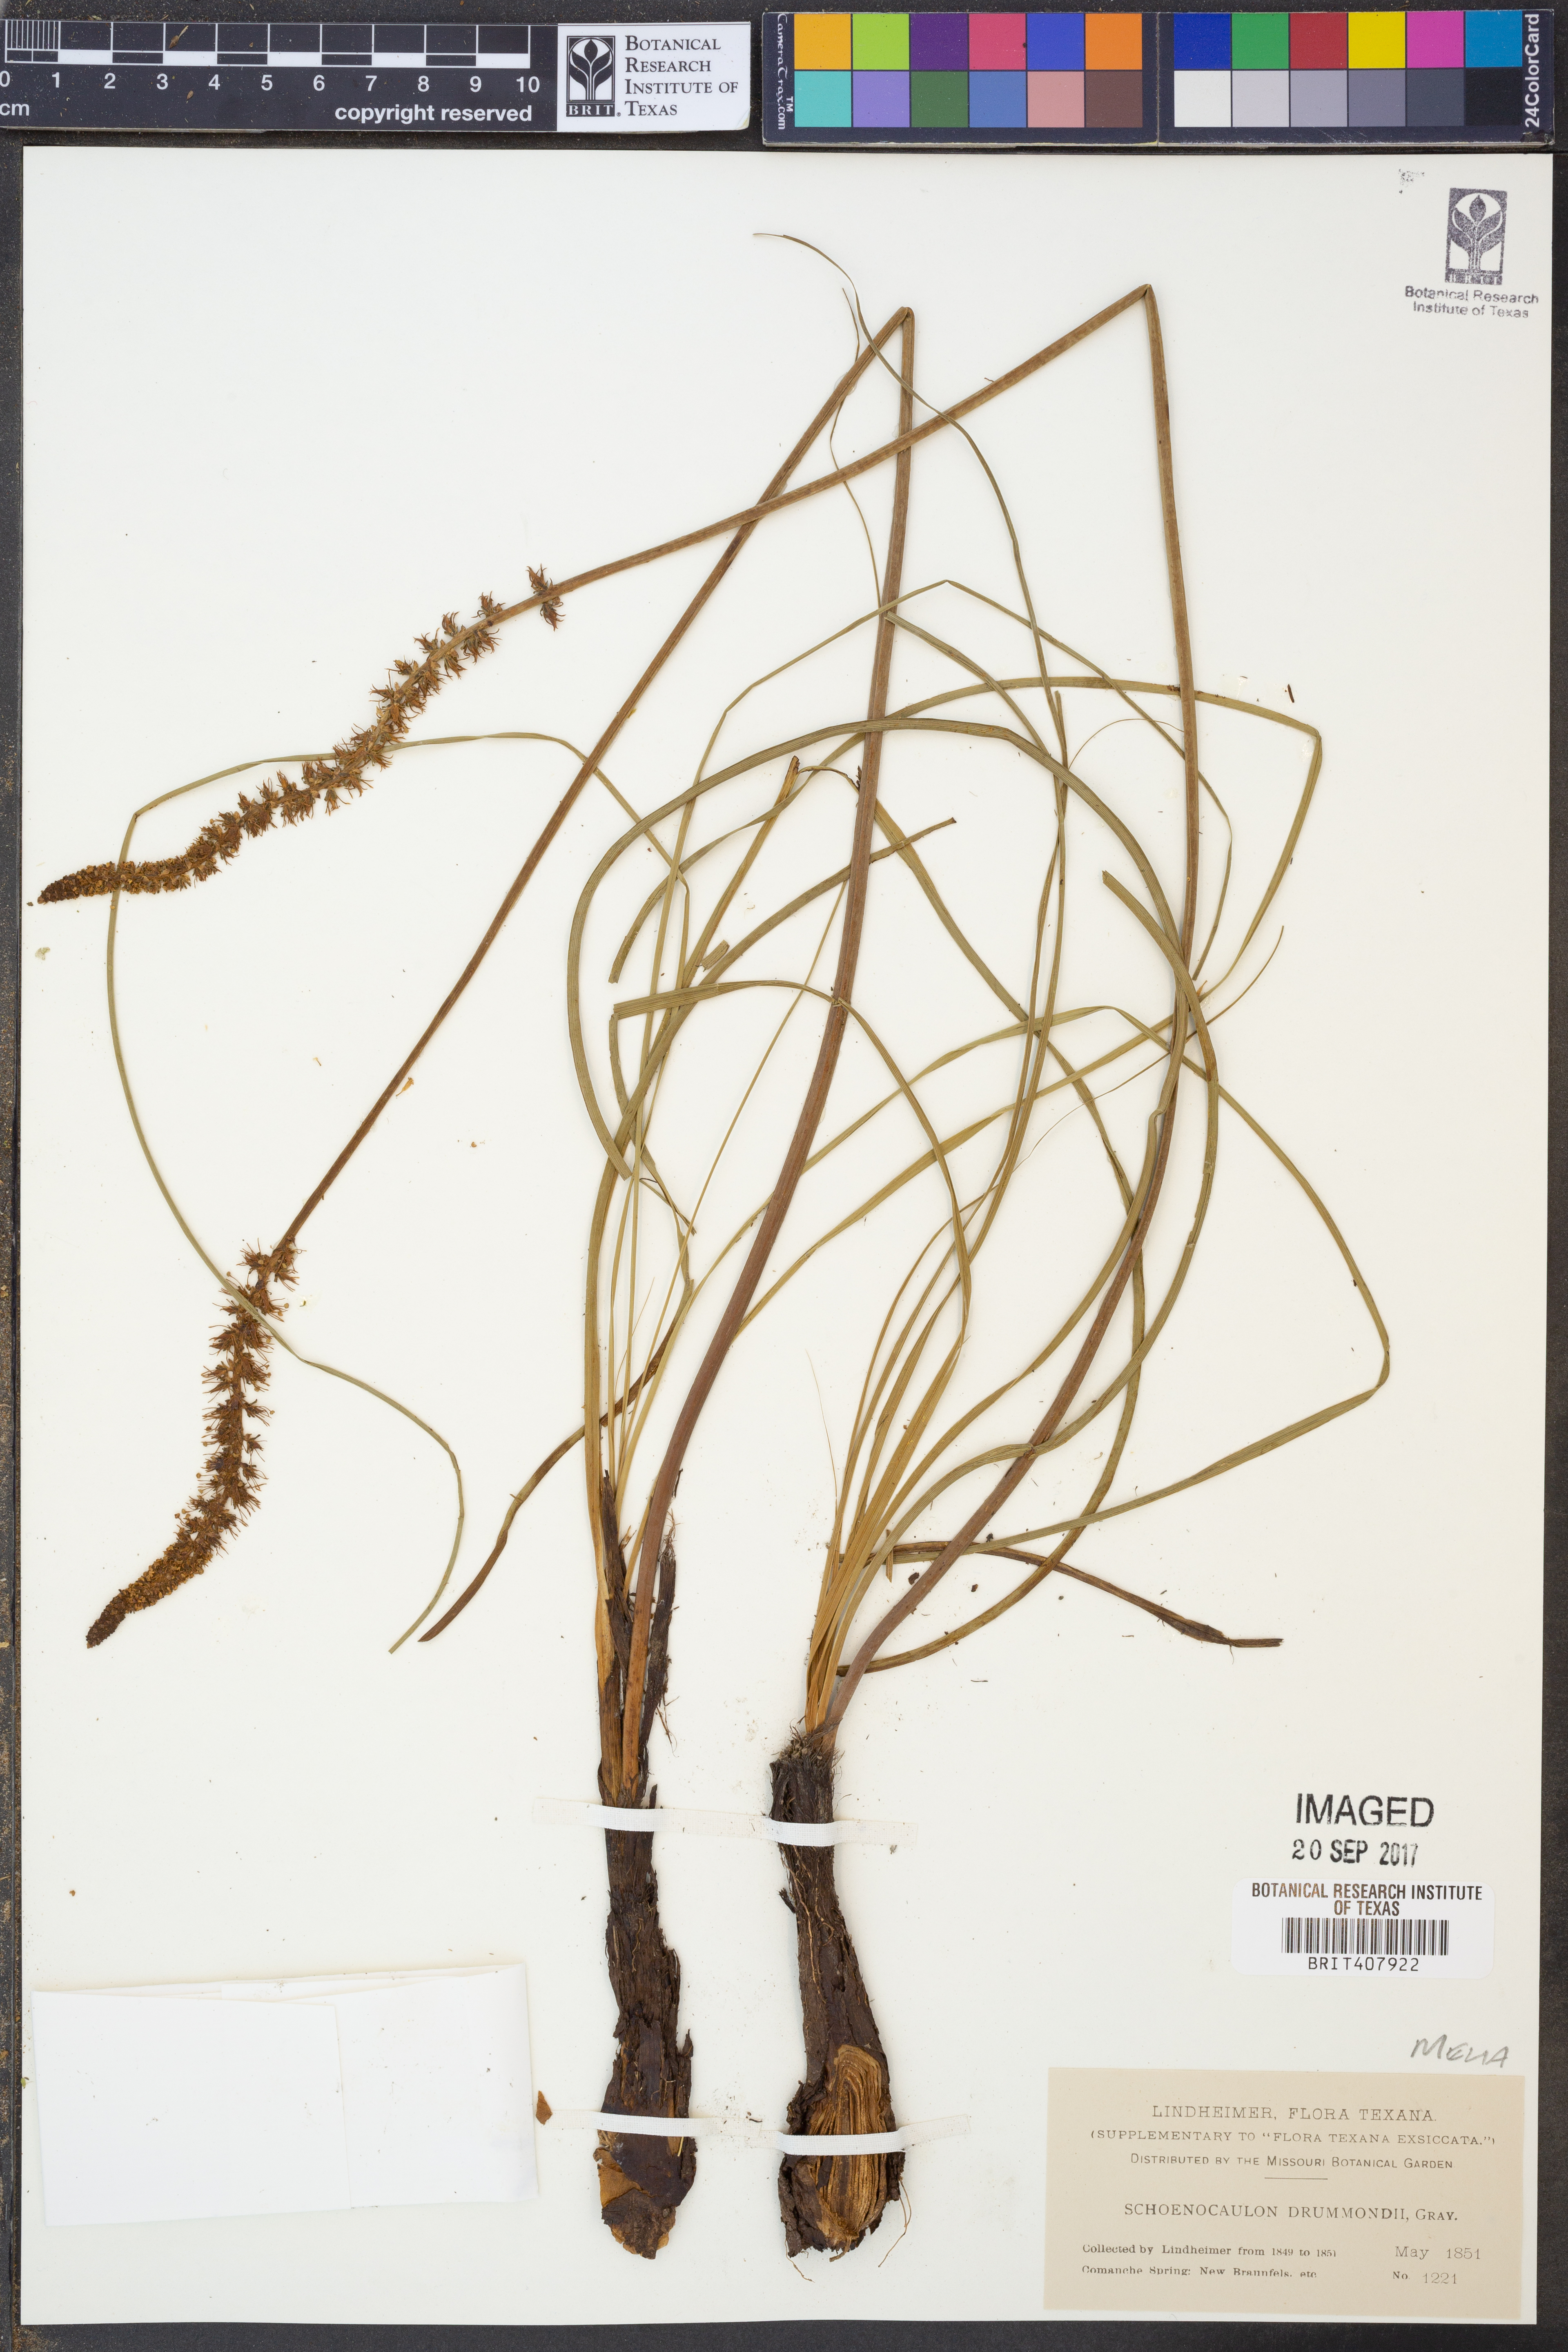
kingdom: Plantae
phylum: Tracheophyta
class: Liliopsida
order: Liliales
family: Melanthiaceae
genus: Schoenocaulon
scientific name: Schoenocaulon ghiesbreghtii
